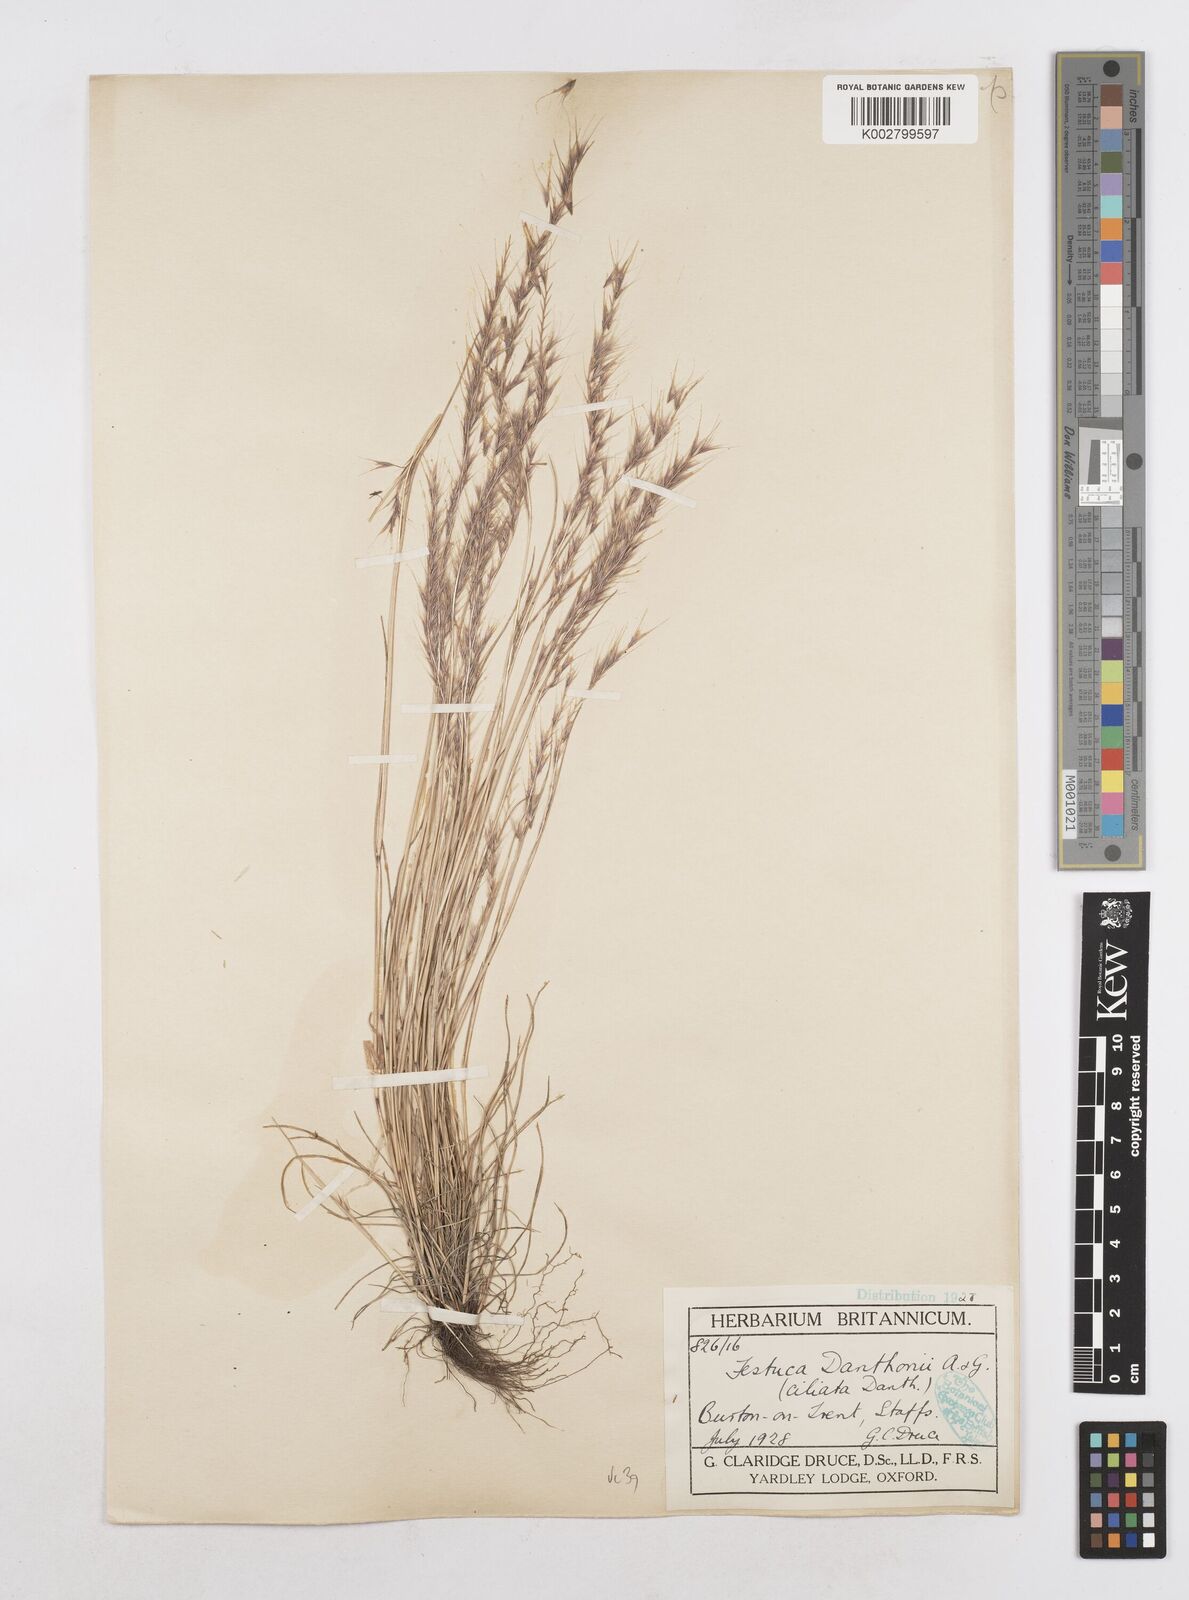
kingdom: Plantae
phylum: Tracheophyta
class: Liliopsida
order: Poales
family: Poaceae
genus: Festuca
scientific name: Festuca
